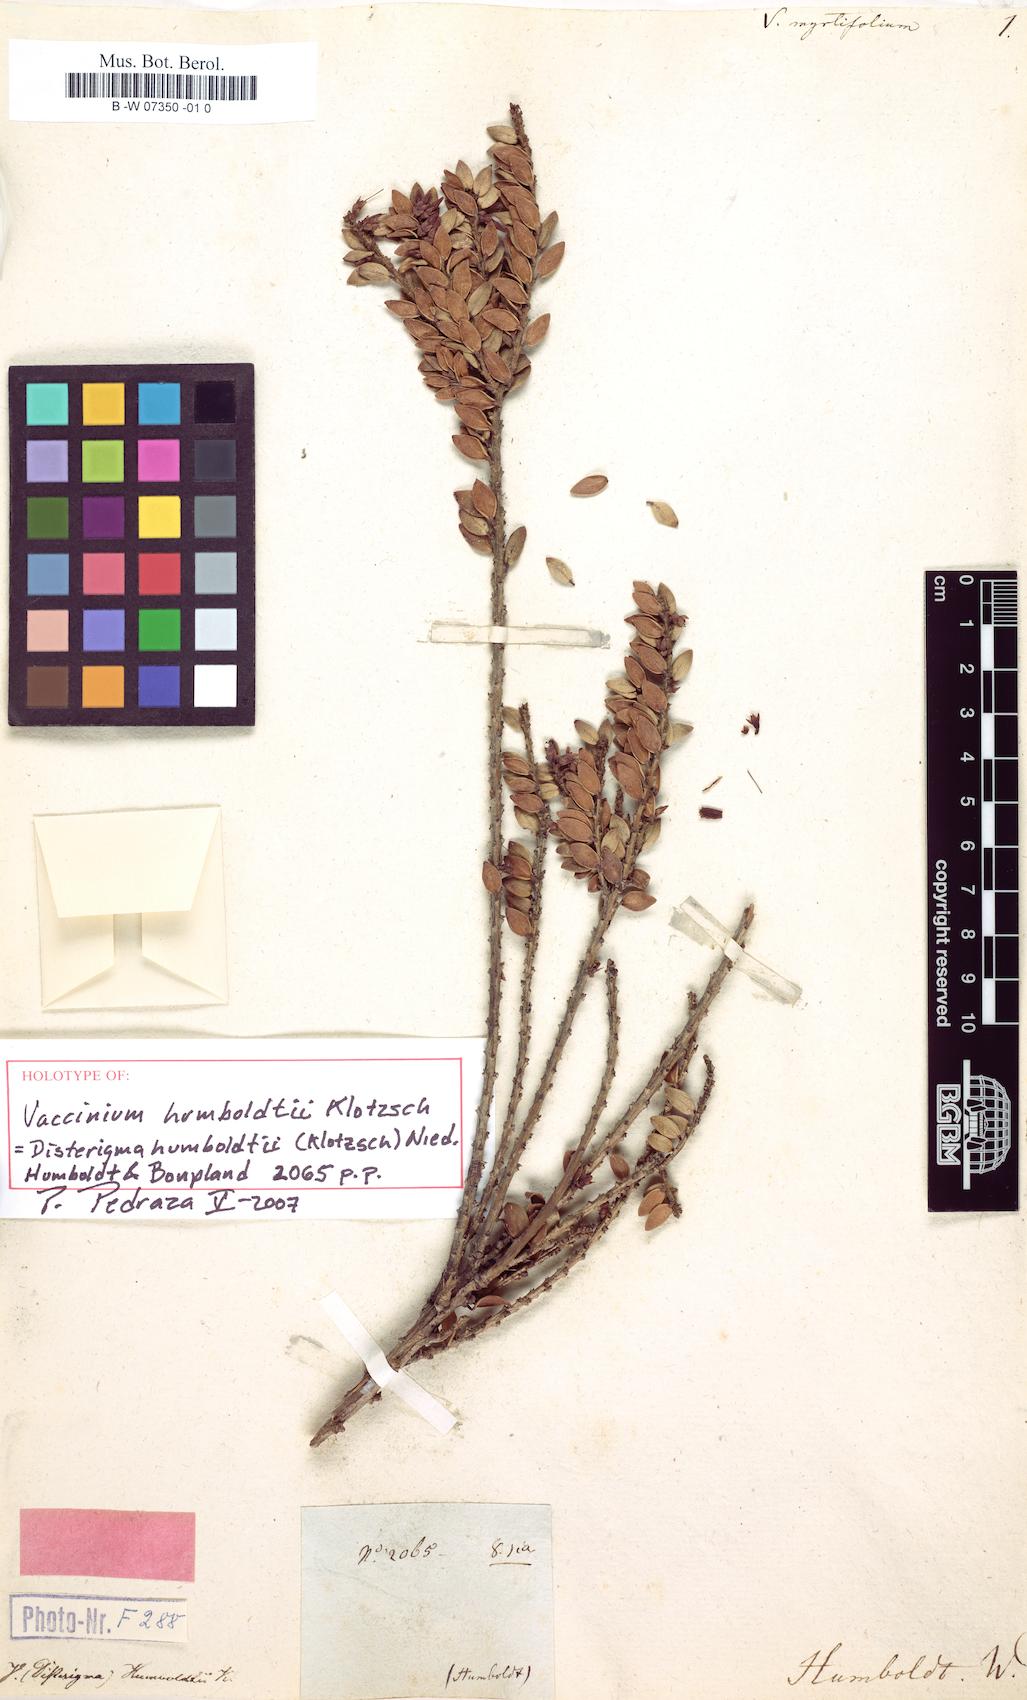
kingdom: Plantae
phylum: Tracheophyta
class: Magnoliopsida
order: Ericales
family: Ericaceae
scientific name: Ericaceae
